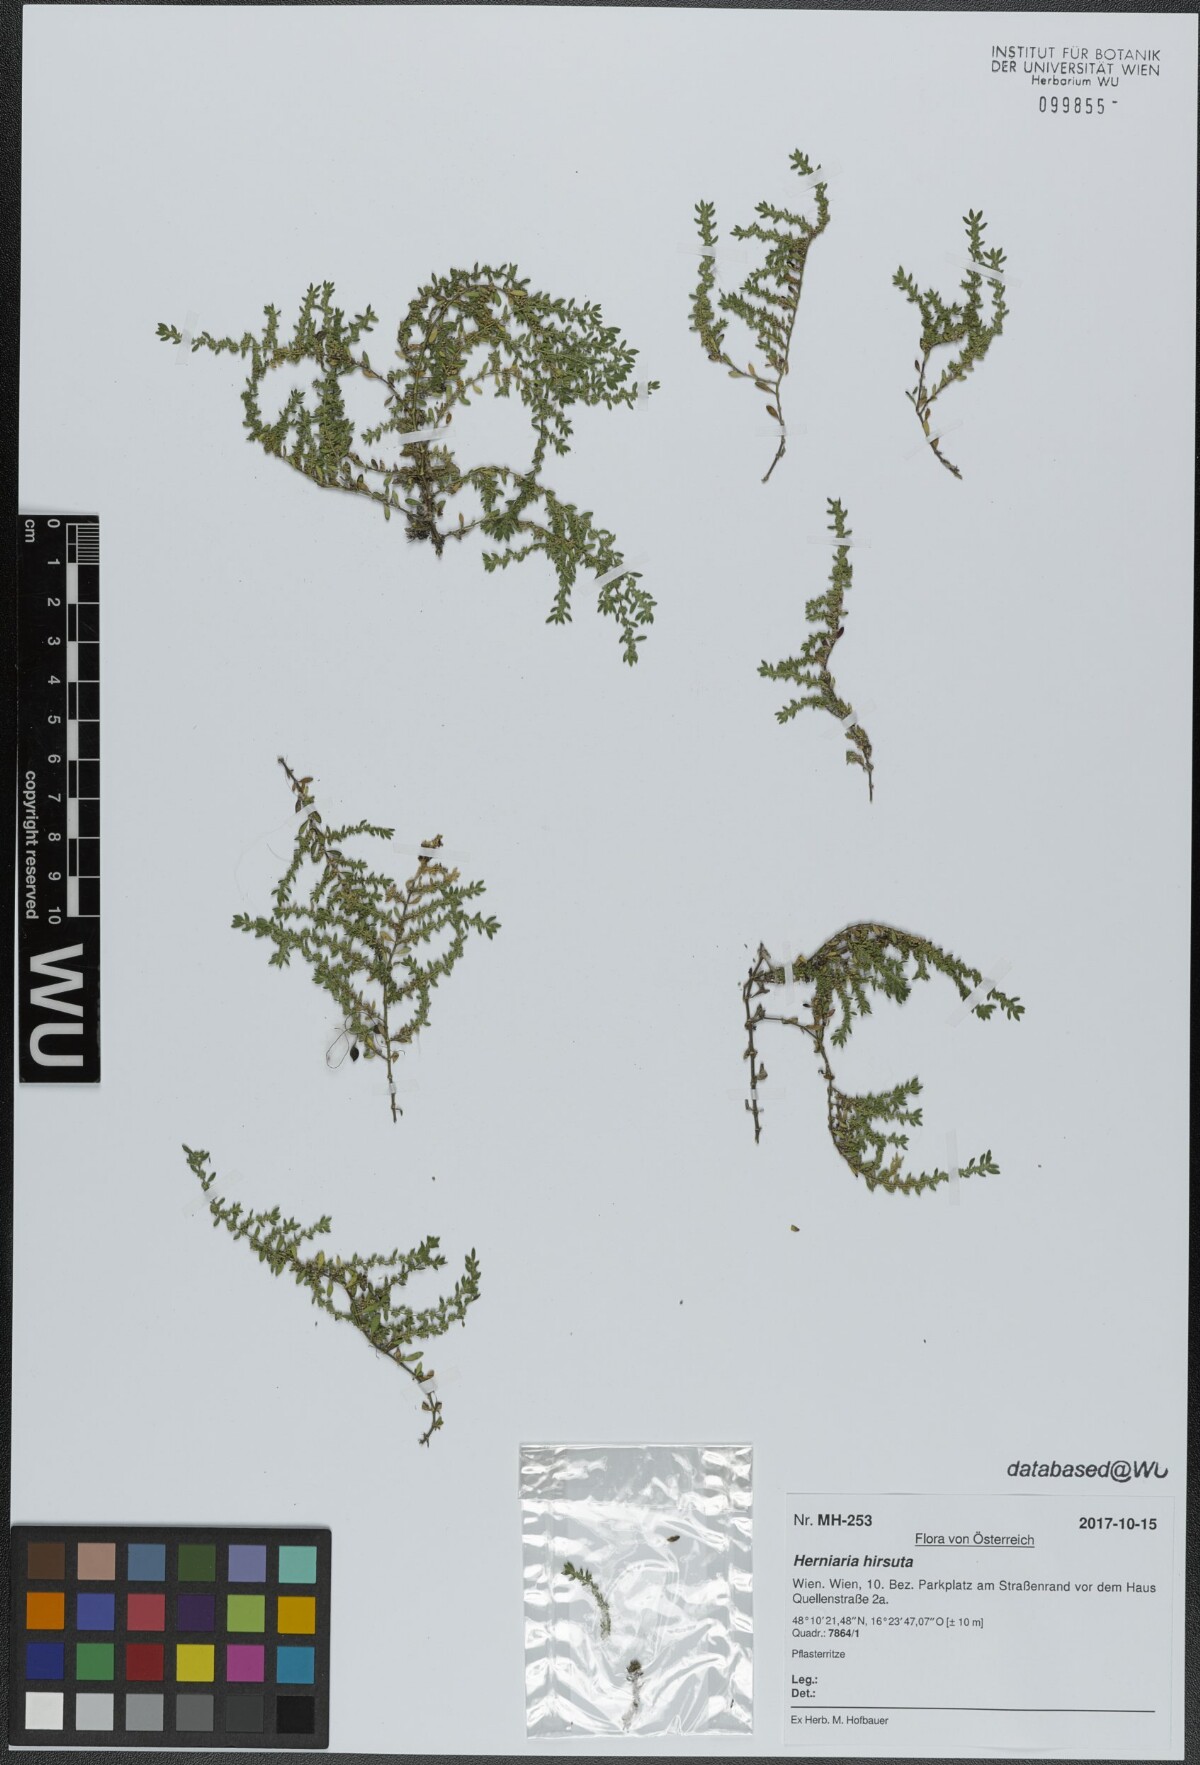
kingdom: Plantae
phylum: Tracheophyta
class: Magnoliopsida
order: Caryophyllales
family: Caryophyllaceae
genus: Herniaria
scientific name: Herniaria hirsuta
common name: Hairy rupturewort
